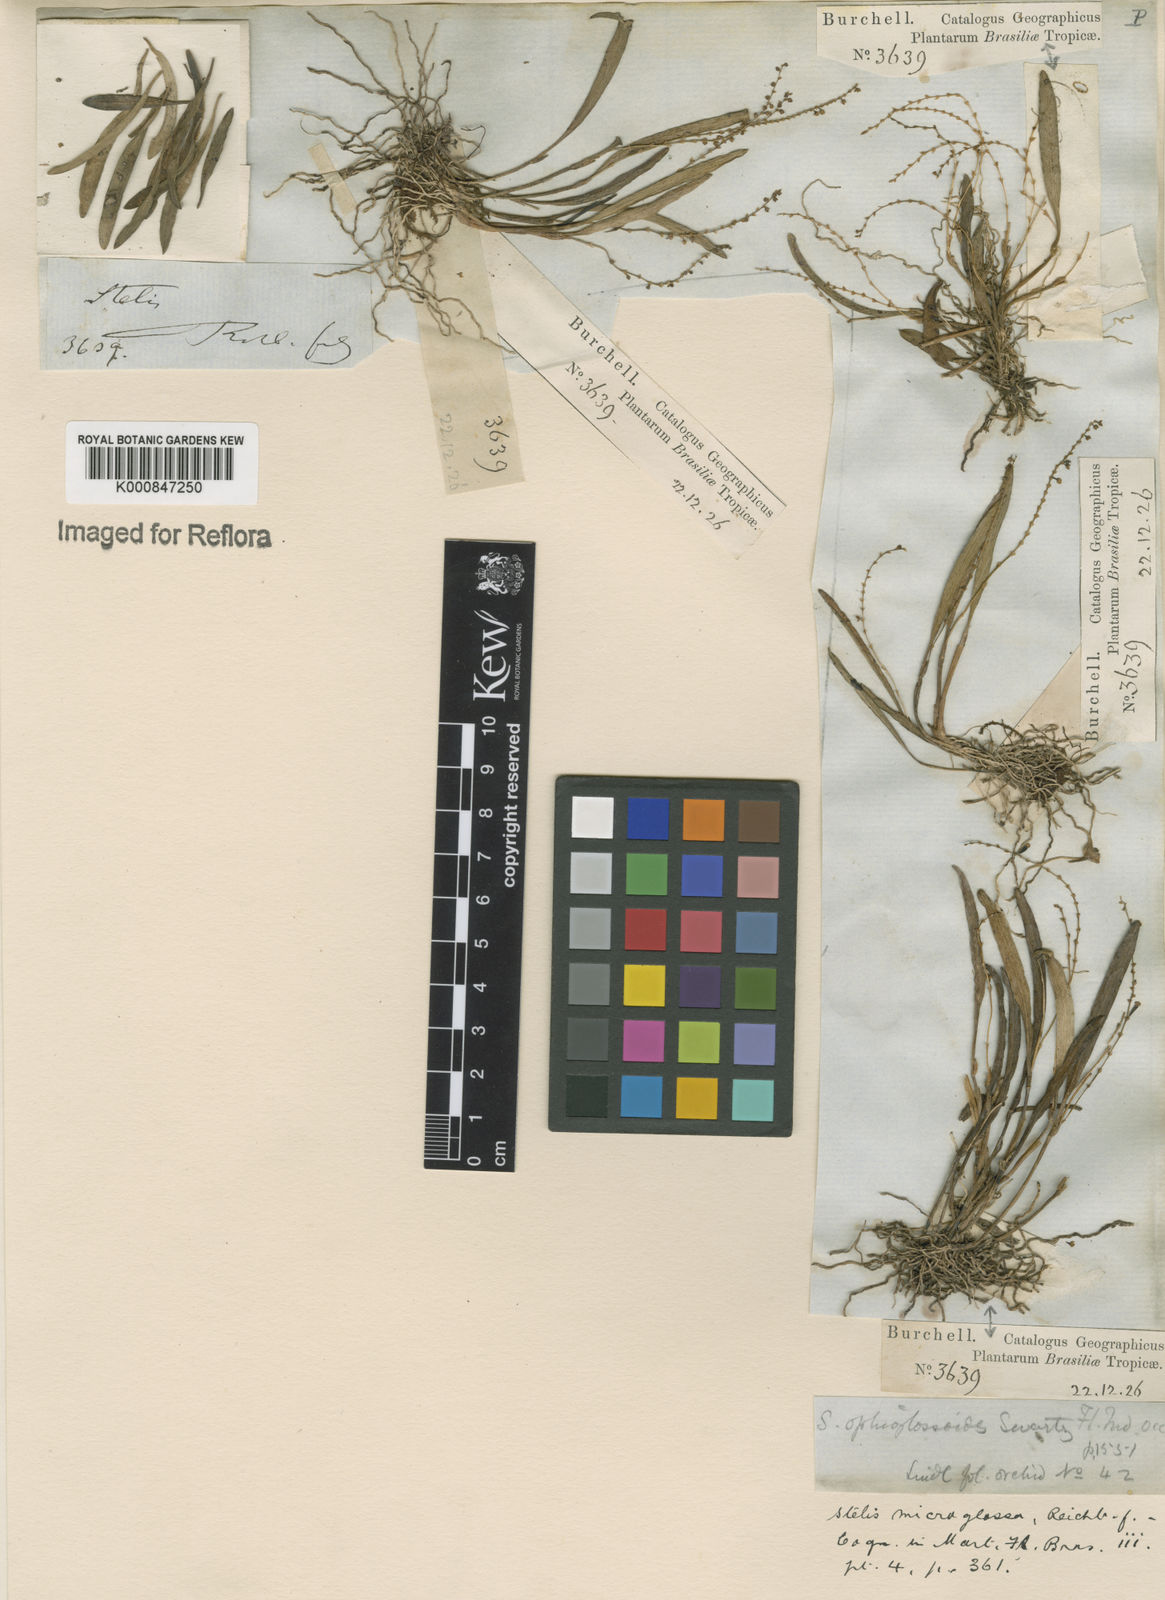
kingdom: Plantae
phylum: Tracheophyta
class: Liliopsida
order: Asparagales
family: Orchidaceae
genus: Stelis
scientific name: Stelis aprica
